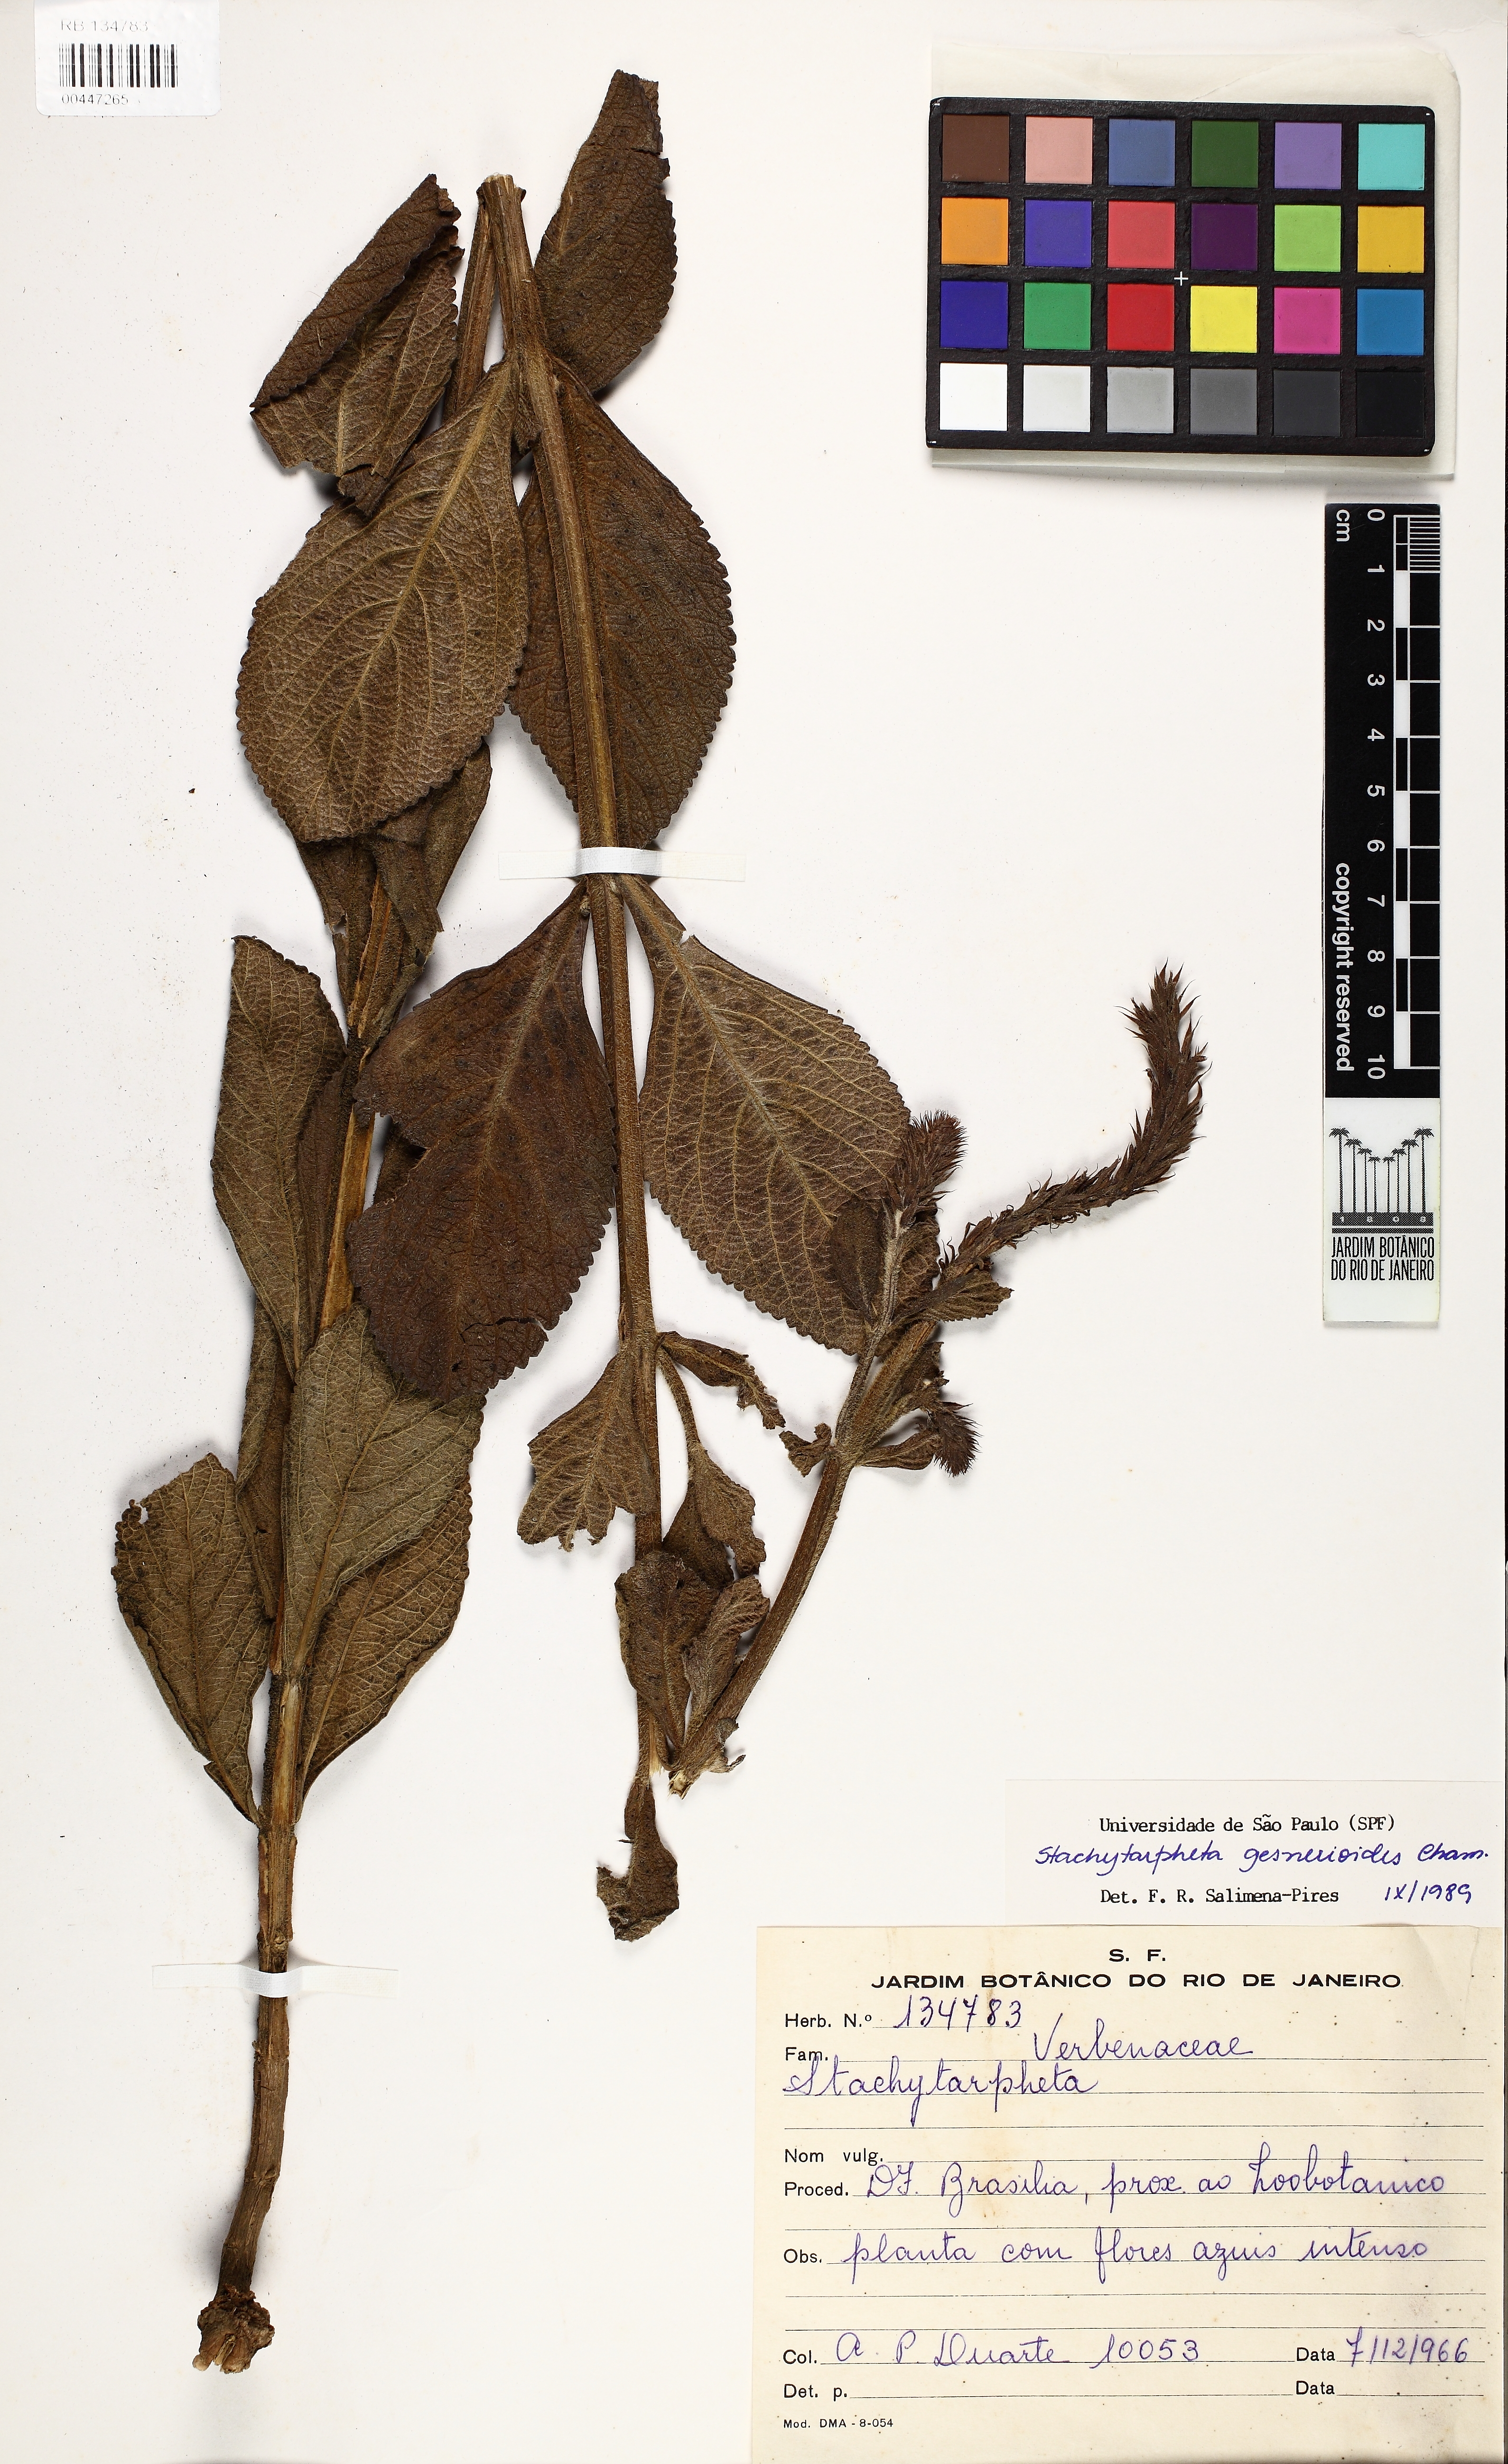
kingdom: Plantae
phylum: Tracheophyta
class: Magnoliopsida
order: Lamiales
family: Verbenaceae
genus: Stachytarpheta
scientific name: Stachytarpheta gesnerioides
